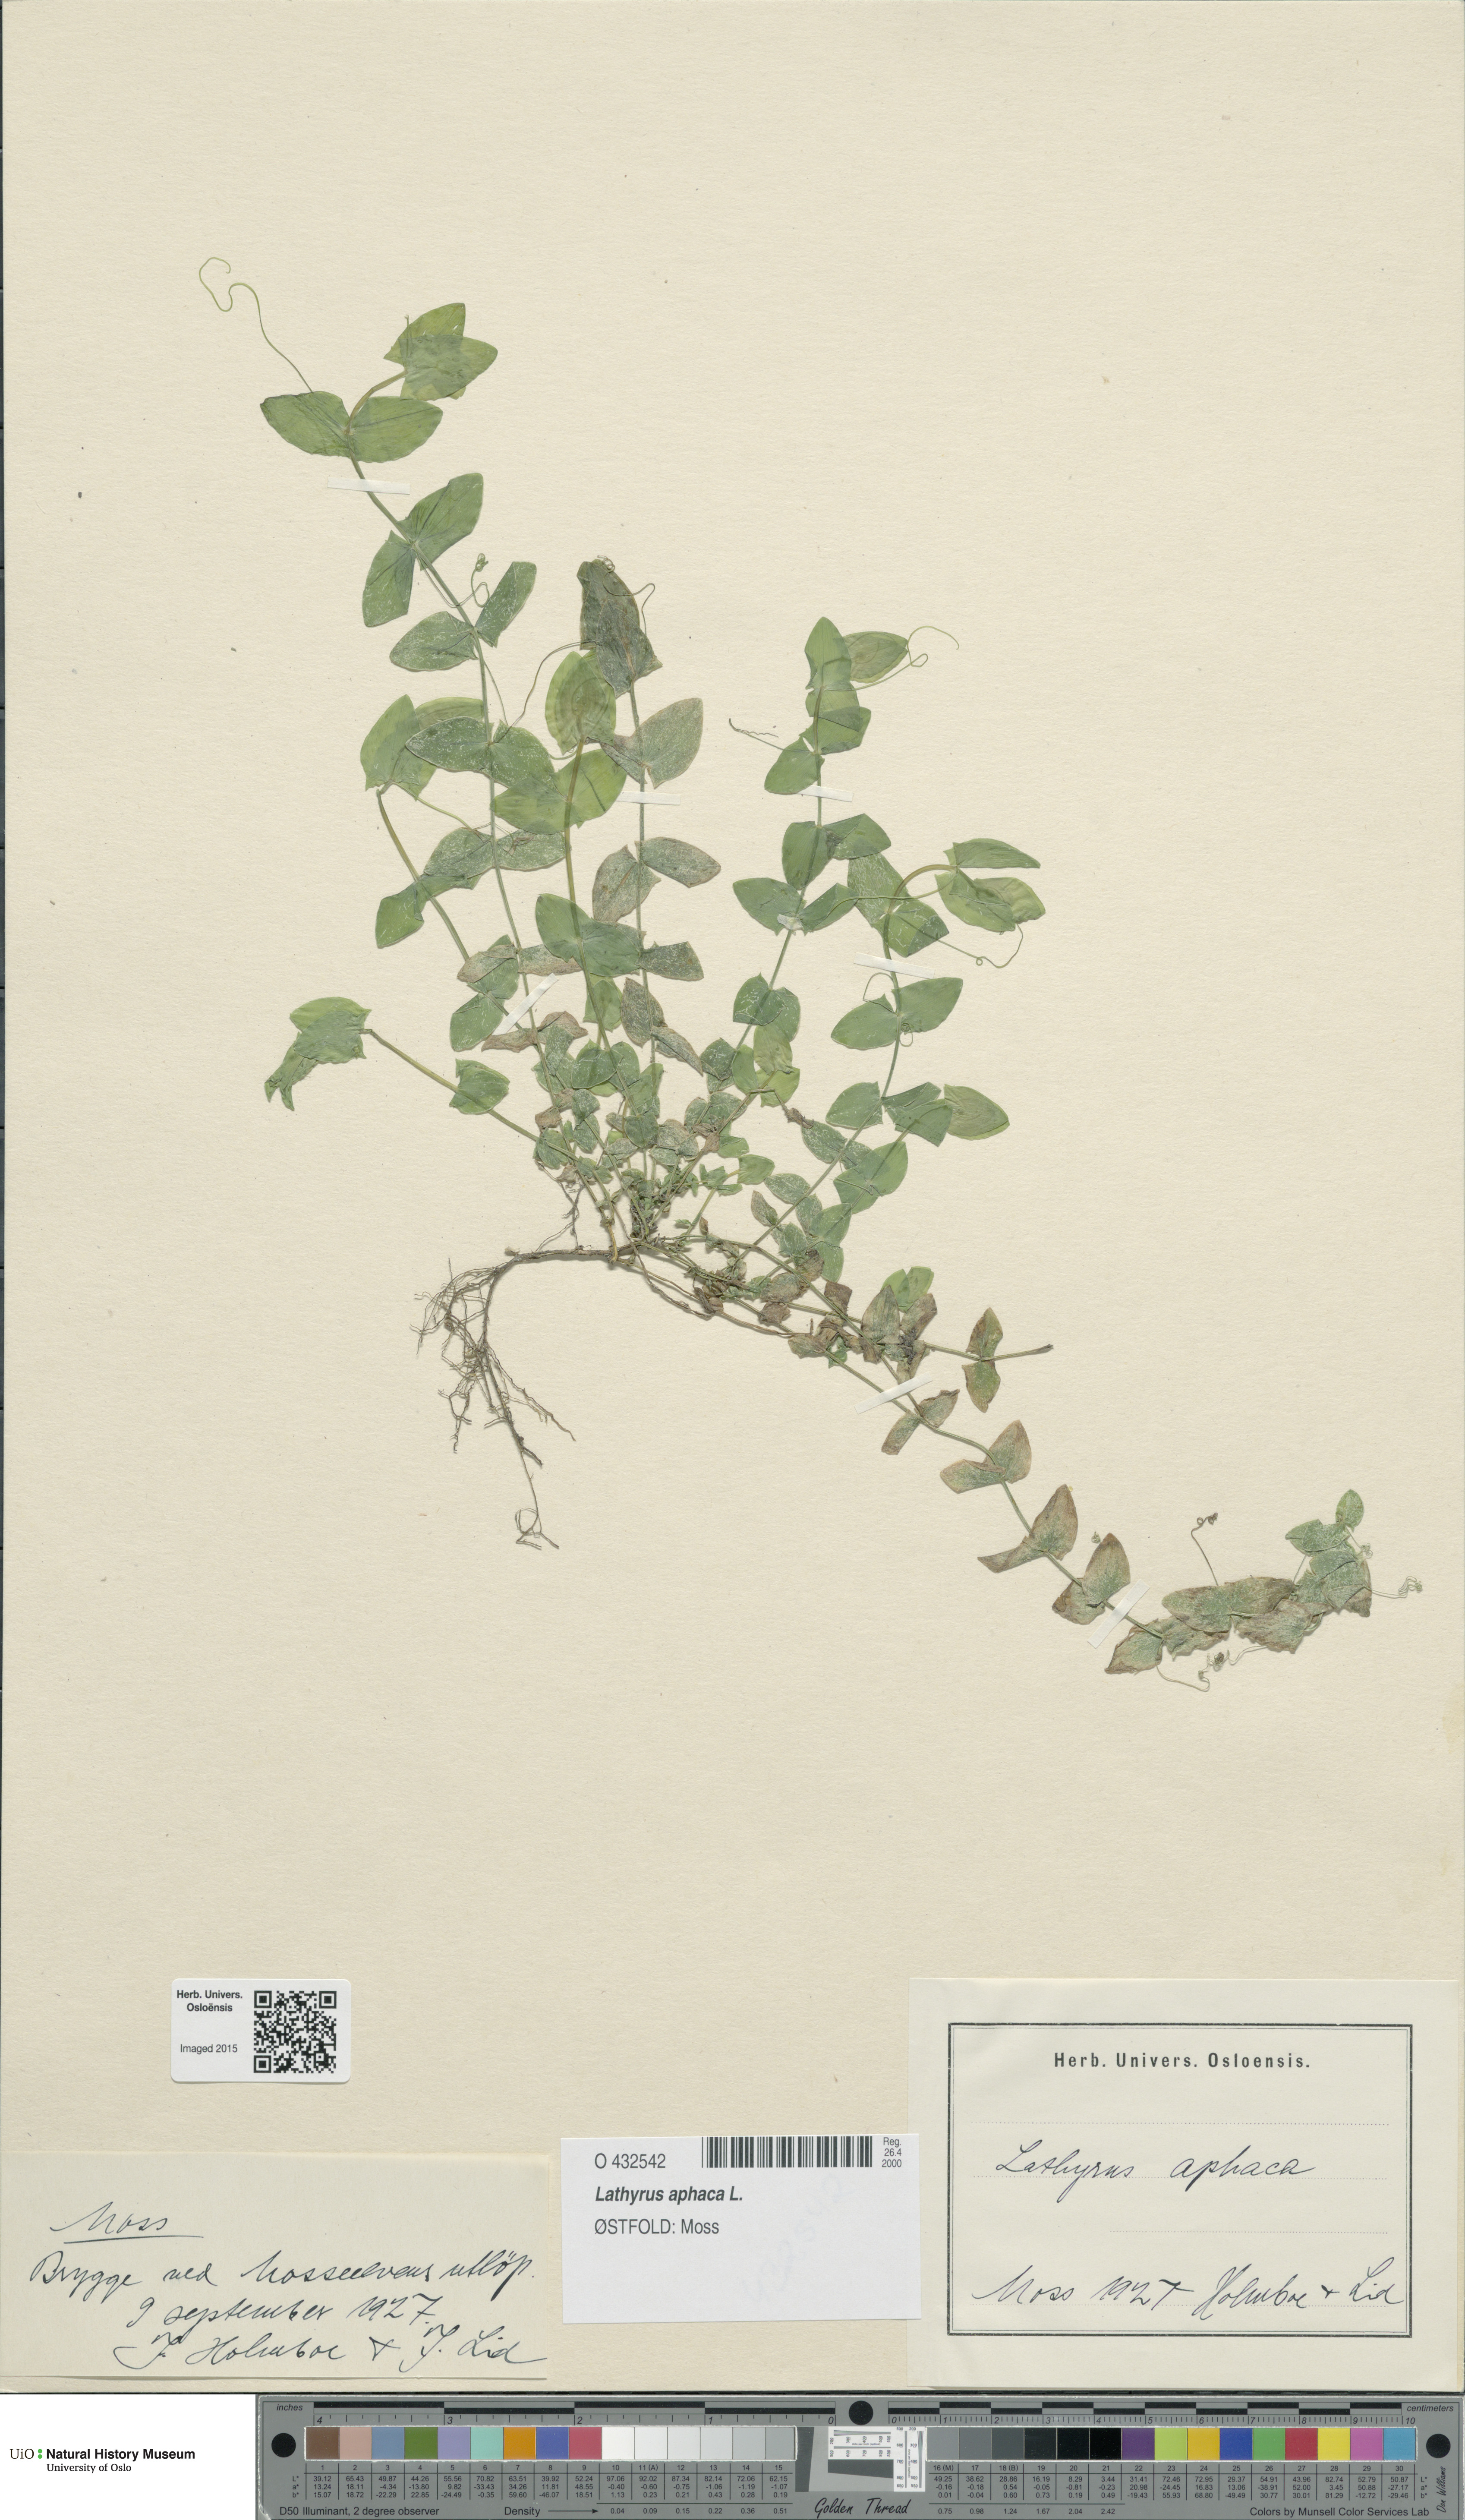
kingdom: Plantae
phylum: Tracheophyta
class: Magnoliopsida
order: Fabales
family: Fabaceae
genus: Lathyrus
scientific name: Lathyrus aphaca
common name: Yellow vetchling
